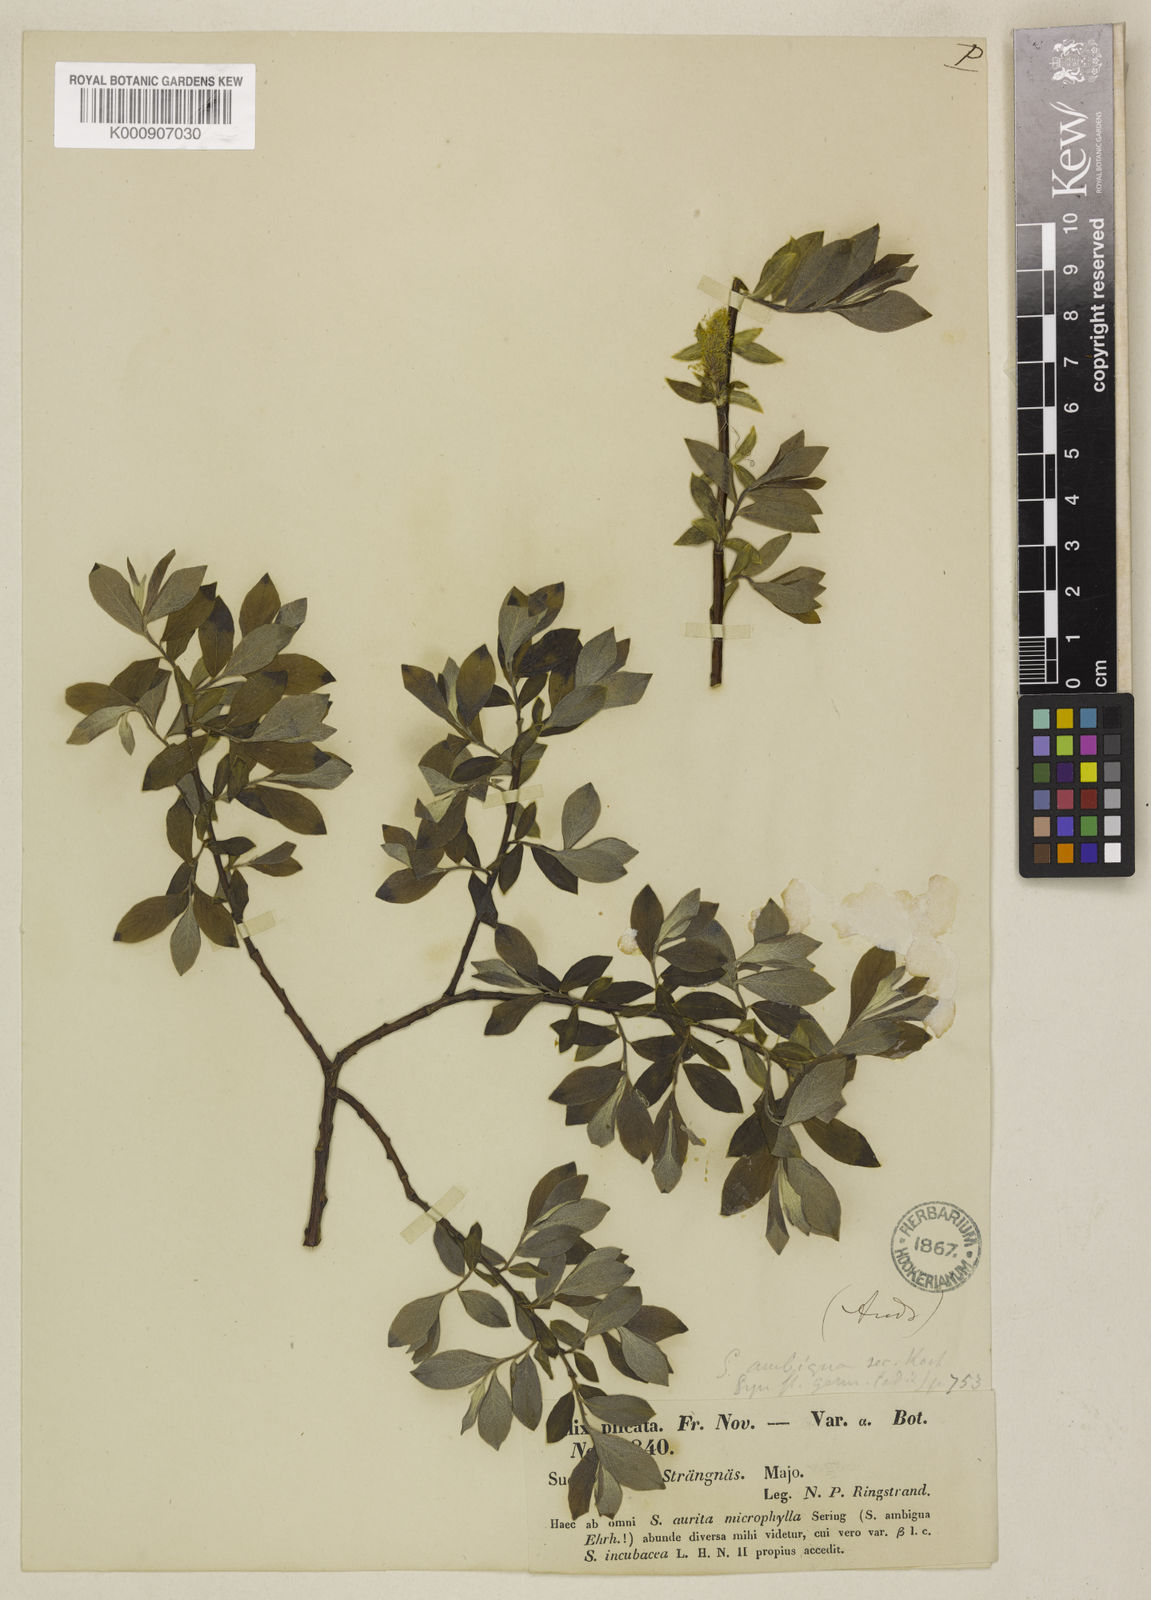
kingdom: Plantae
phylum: Tracheophyta
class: Magnoliopsida
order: Malpighiales
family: Salicaceae
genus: Salix
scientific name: Salix aurita
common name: Eared willow
